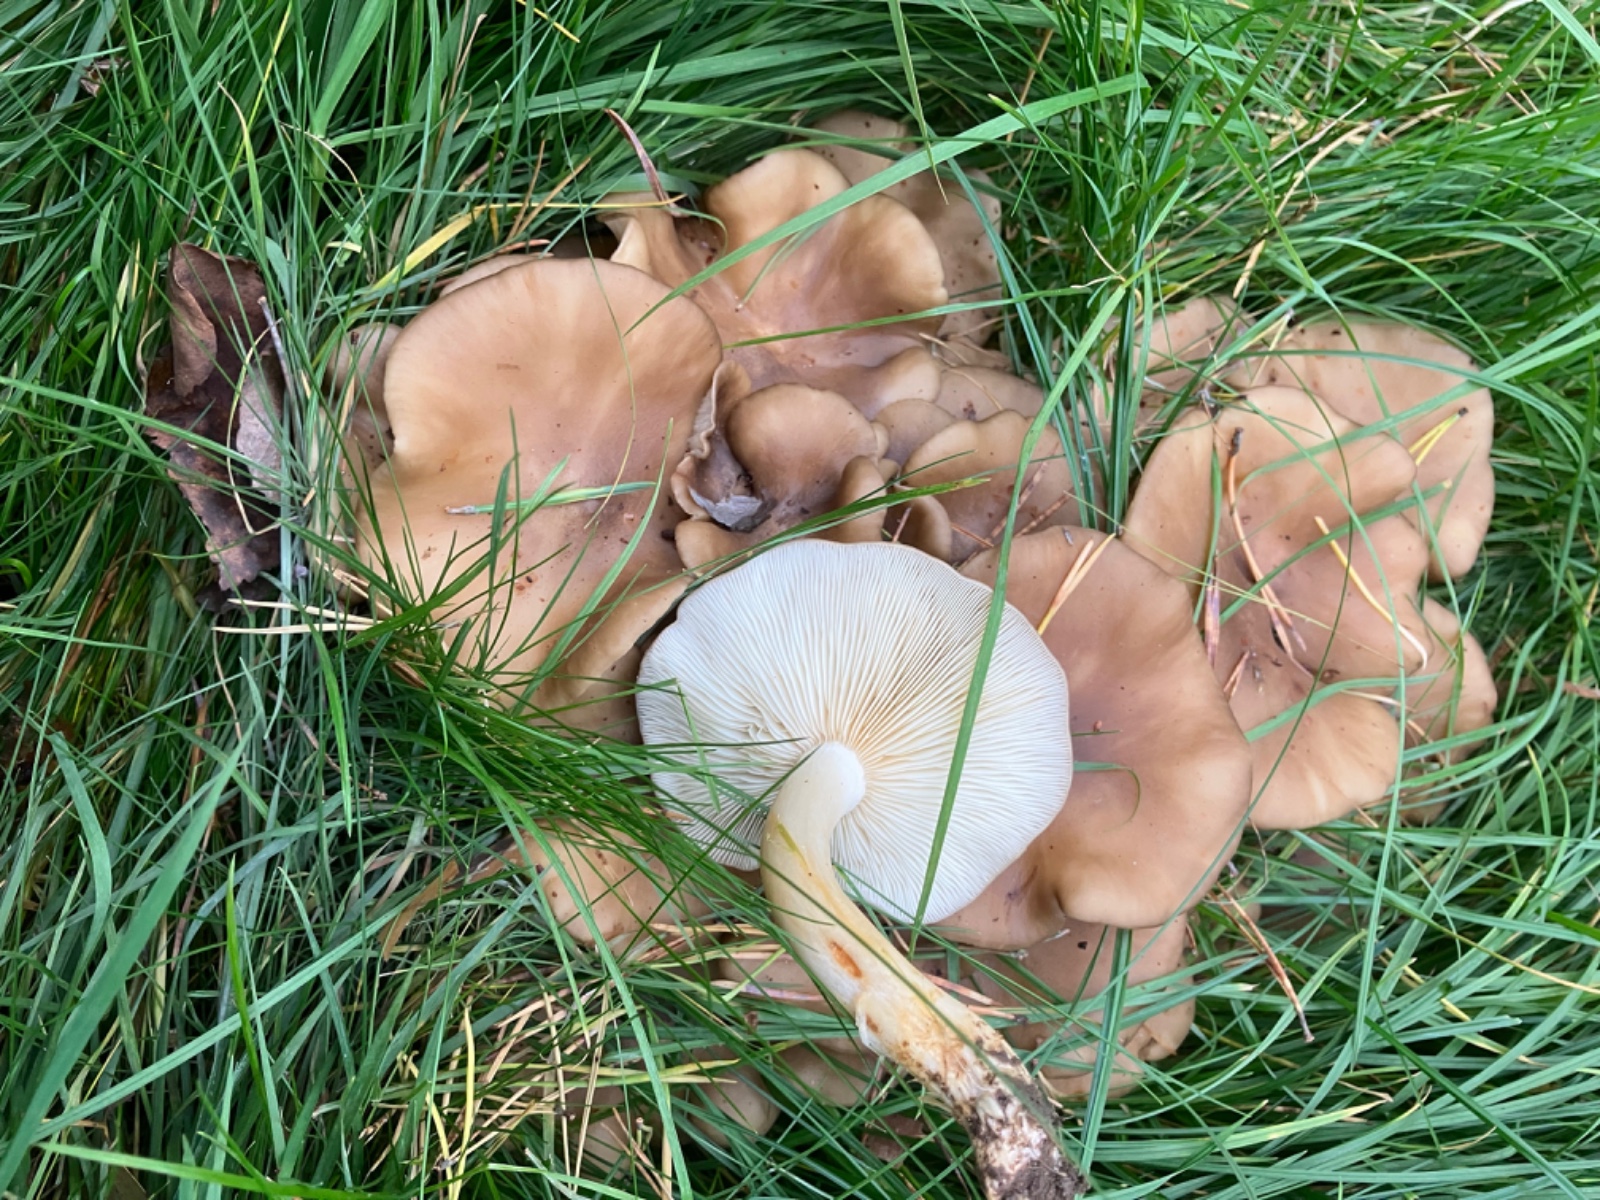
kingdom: Fungi
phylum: Basidiomycota
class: Agaricomycetes
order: Agaricales
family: Lyophyllaceae
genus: Lyophyllum
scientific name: Lyophyllum decastes
